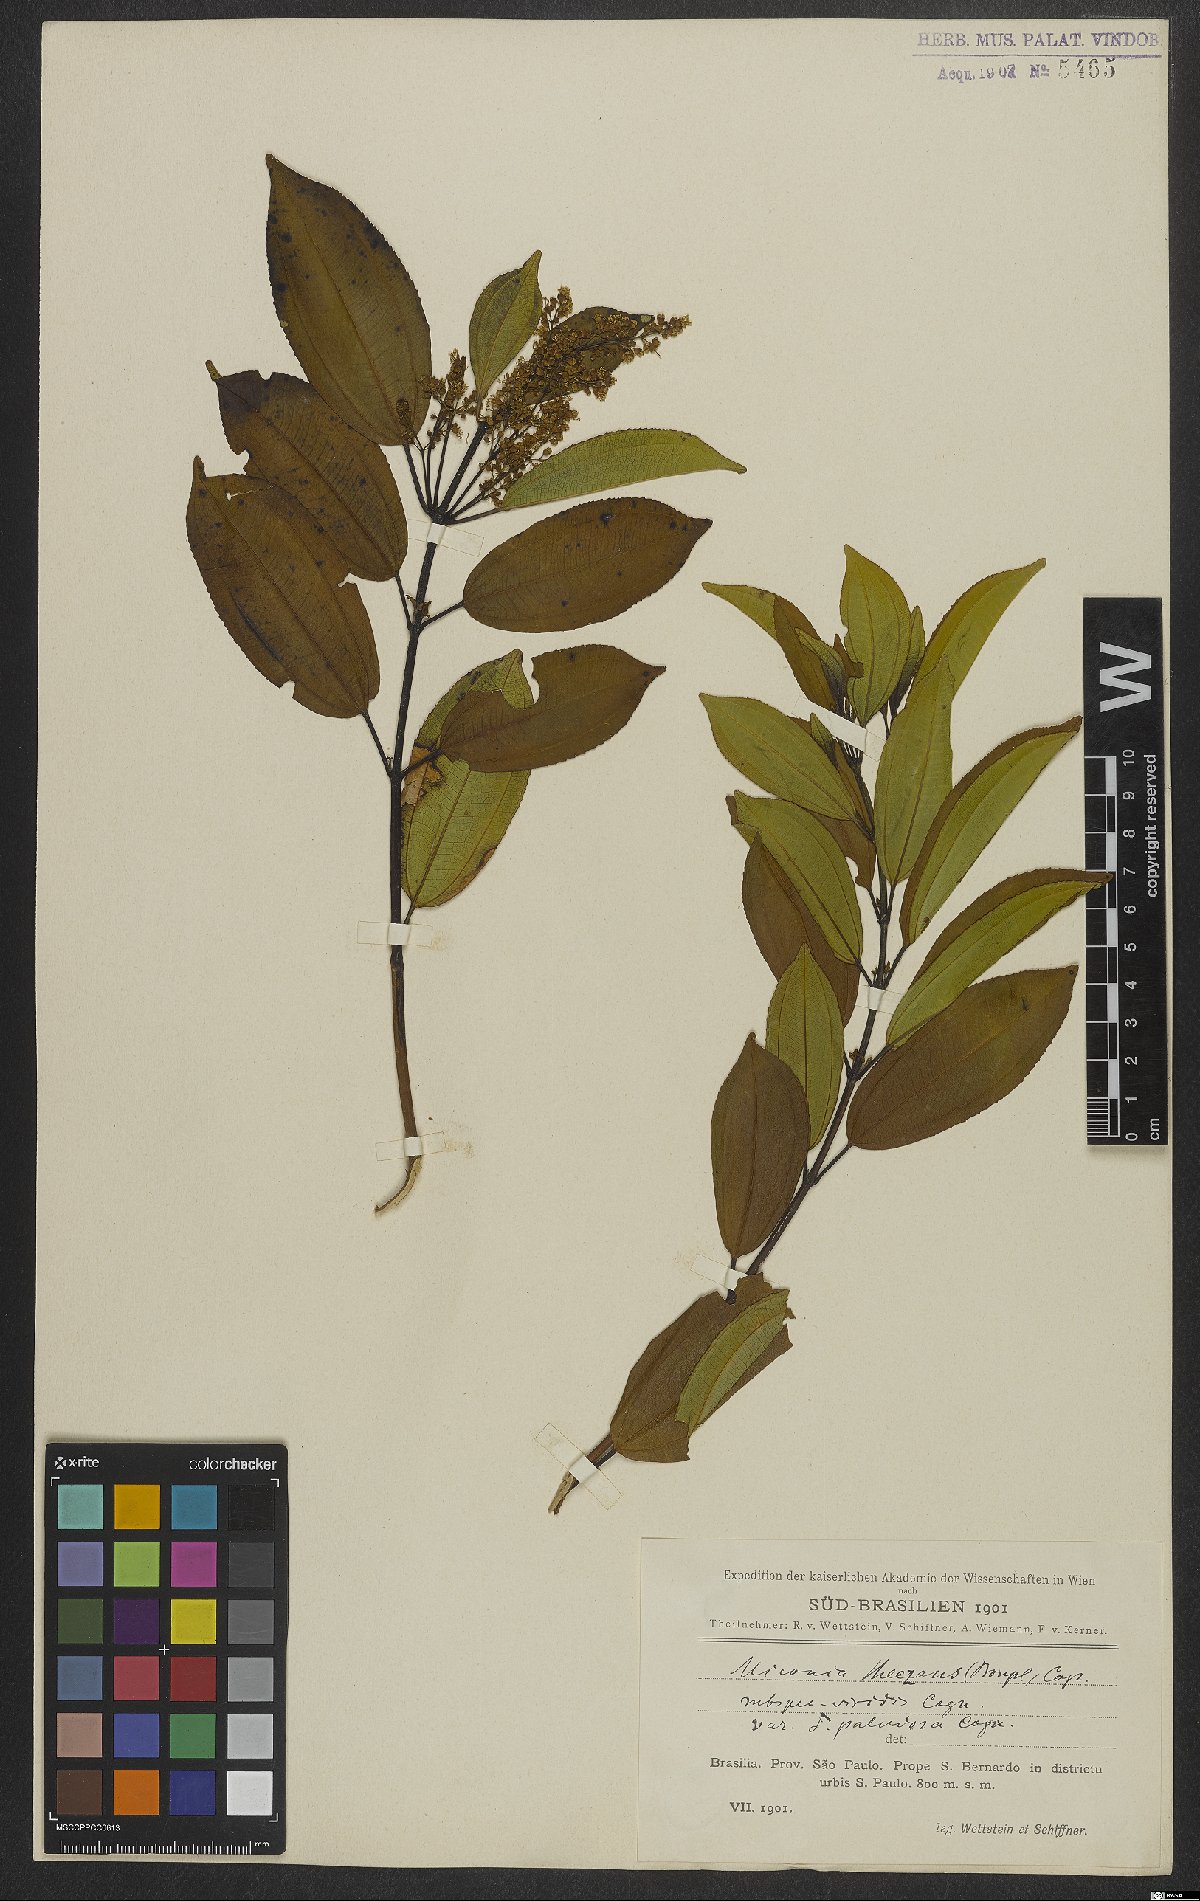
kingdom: Plantae
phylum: Tracheophyta
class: Magnoliopsida
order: Myrtales
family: Melastomataceae
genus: Miconia
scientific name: Miconia theizans
